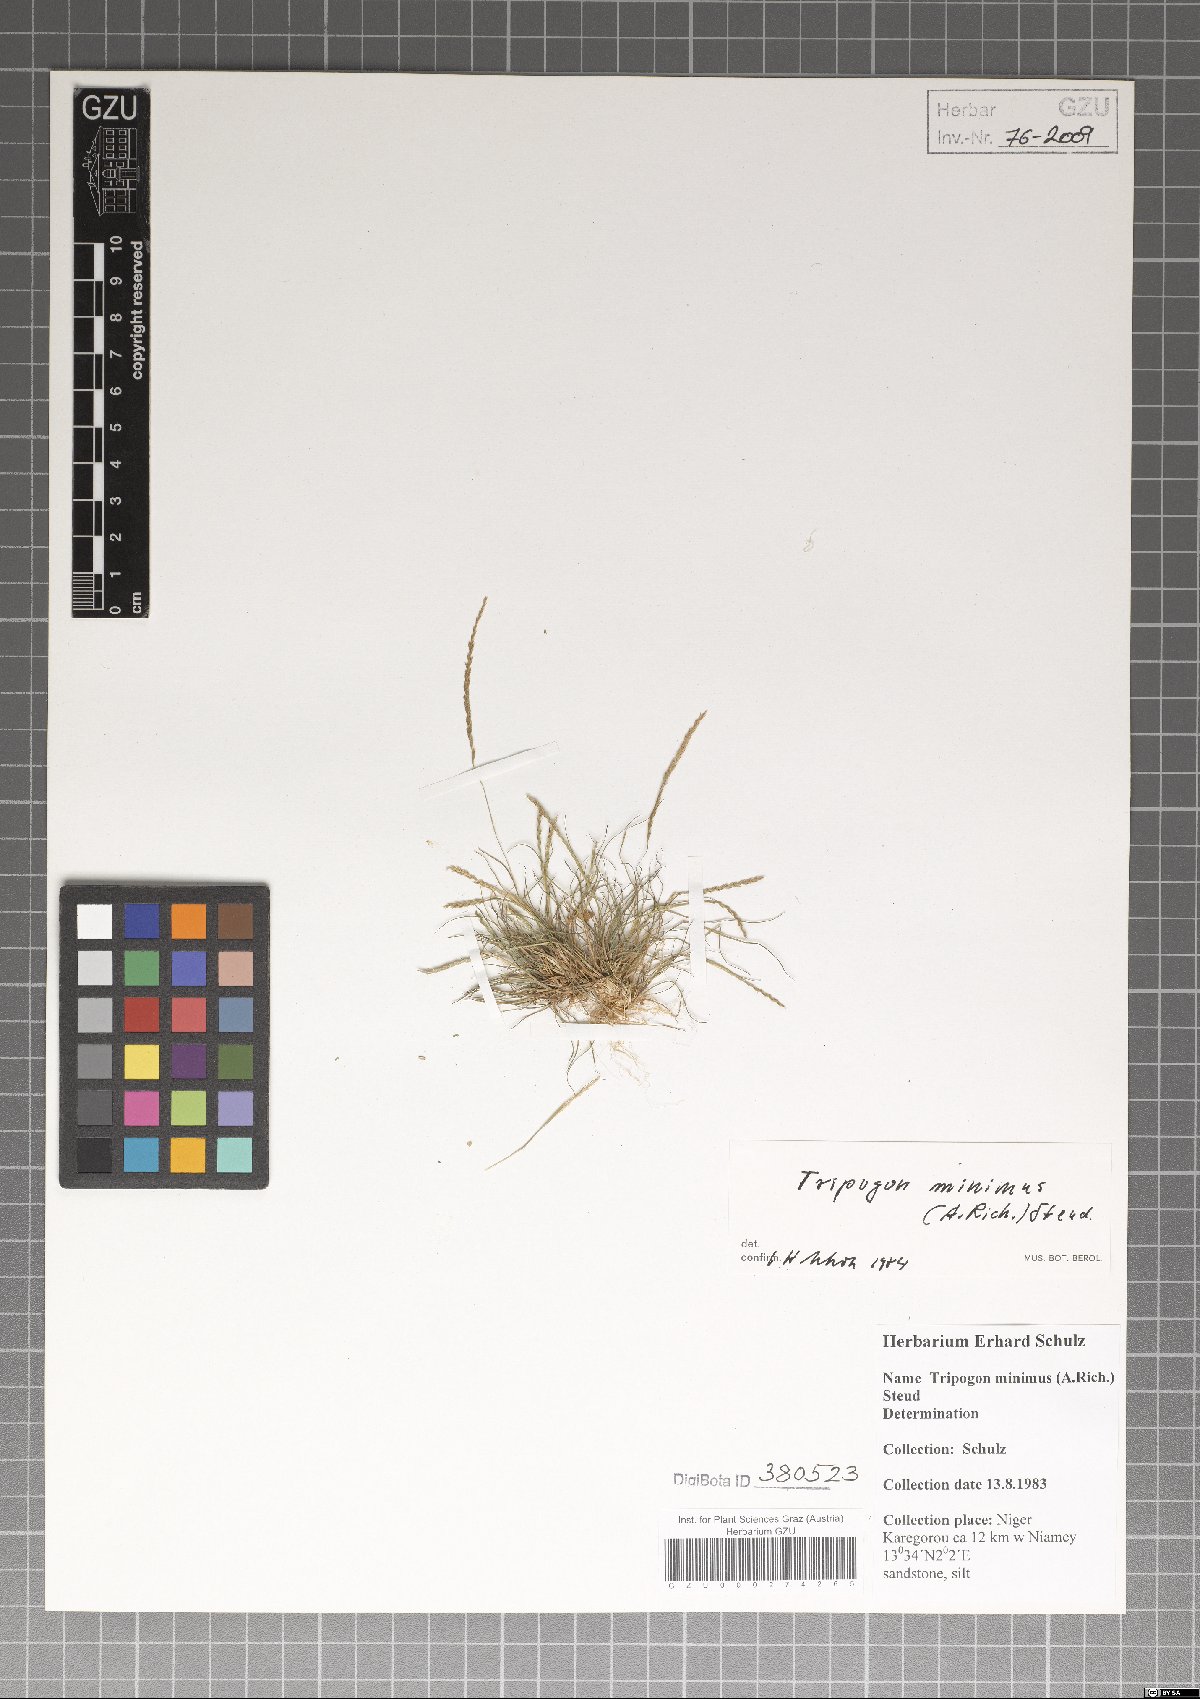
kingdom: Plantae
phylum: Tracheophyta
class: Liliopsida
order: Poales
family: Poaceae
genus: Tripogonella
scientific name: Tripogonella minima
